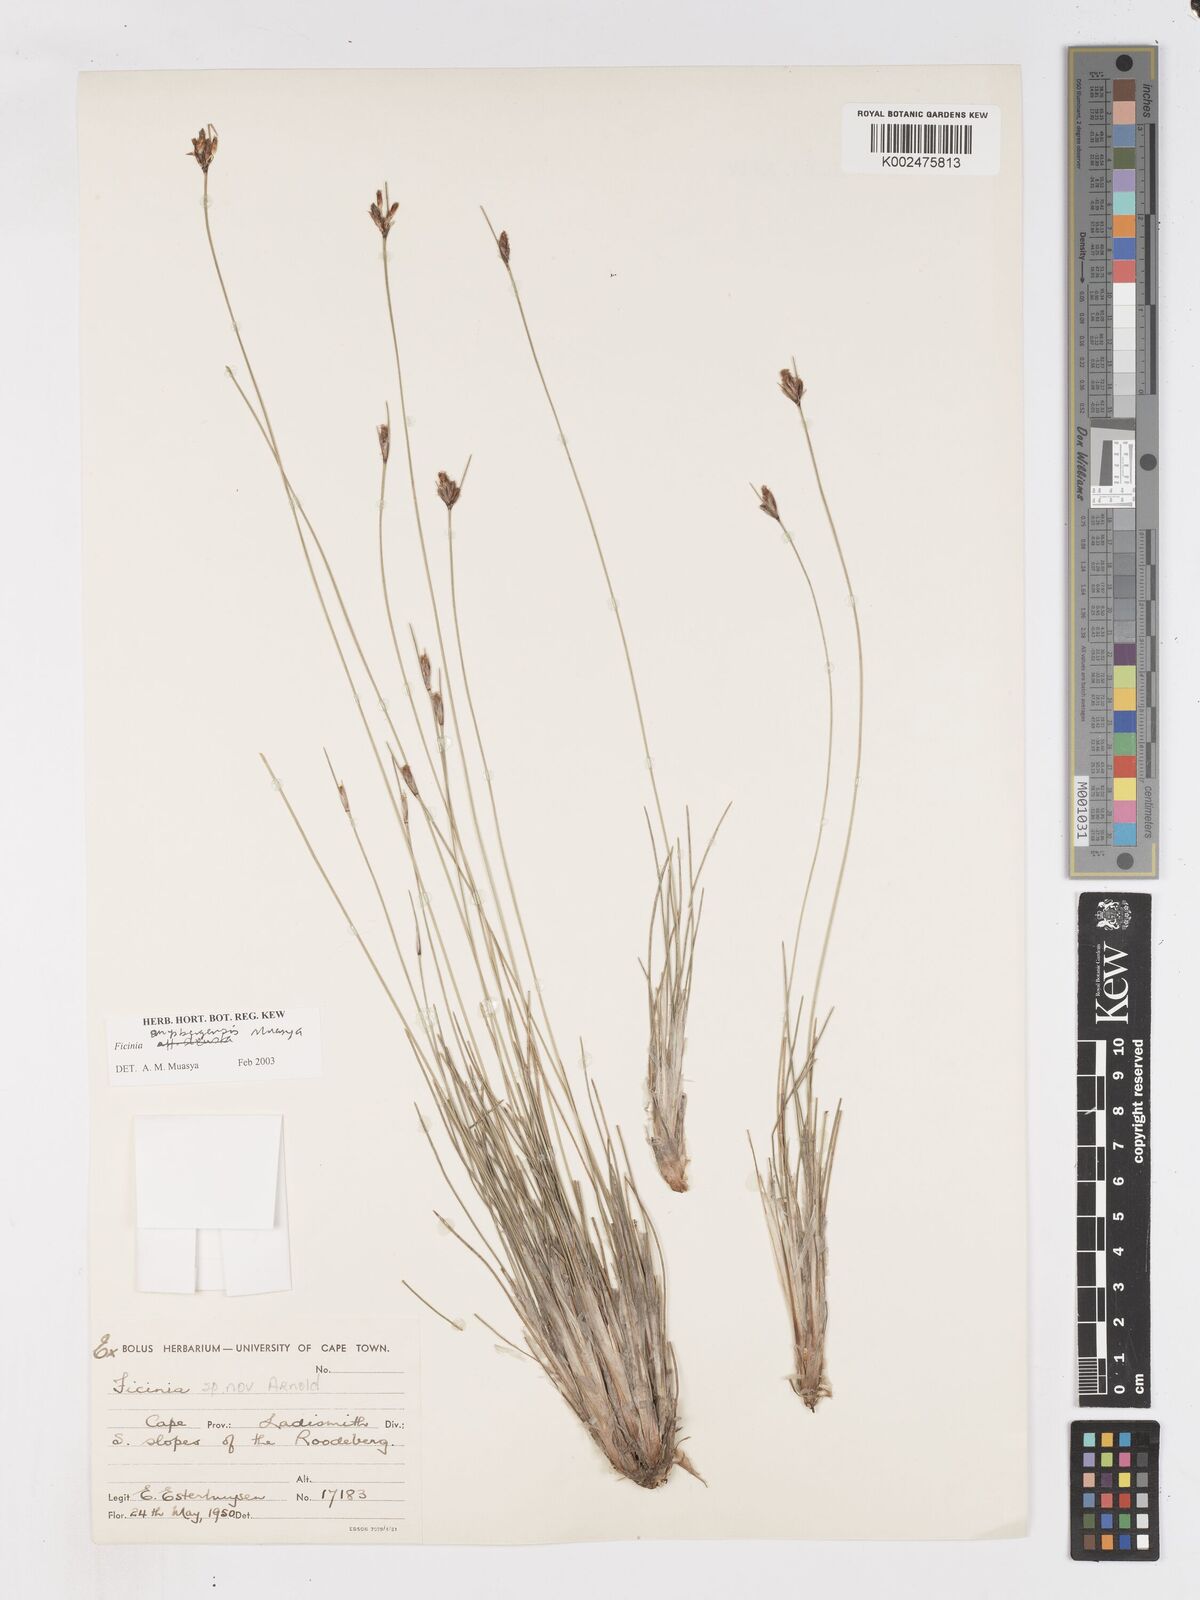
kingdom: Plantae
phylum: Tracheophyta
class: Liliopsida
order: Poales
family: Cyperaceae
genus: Ficinia
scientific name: Ficinia anysbergensis
